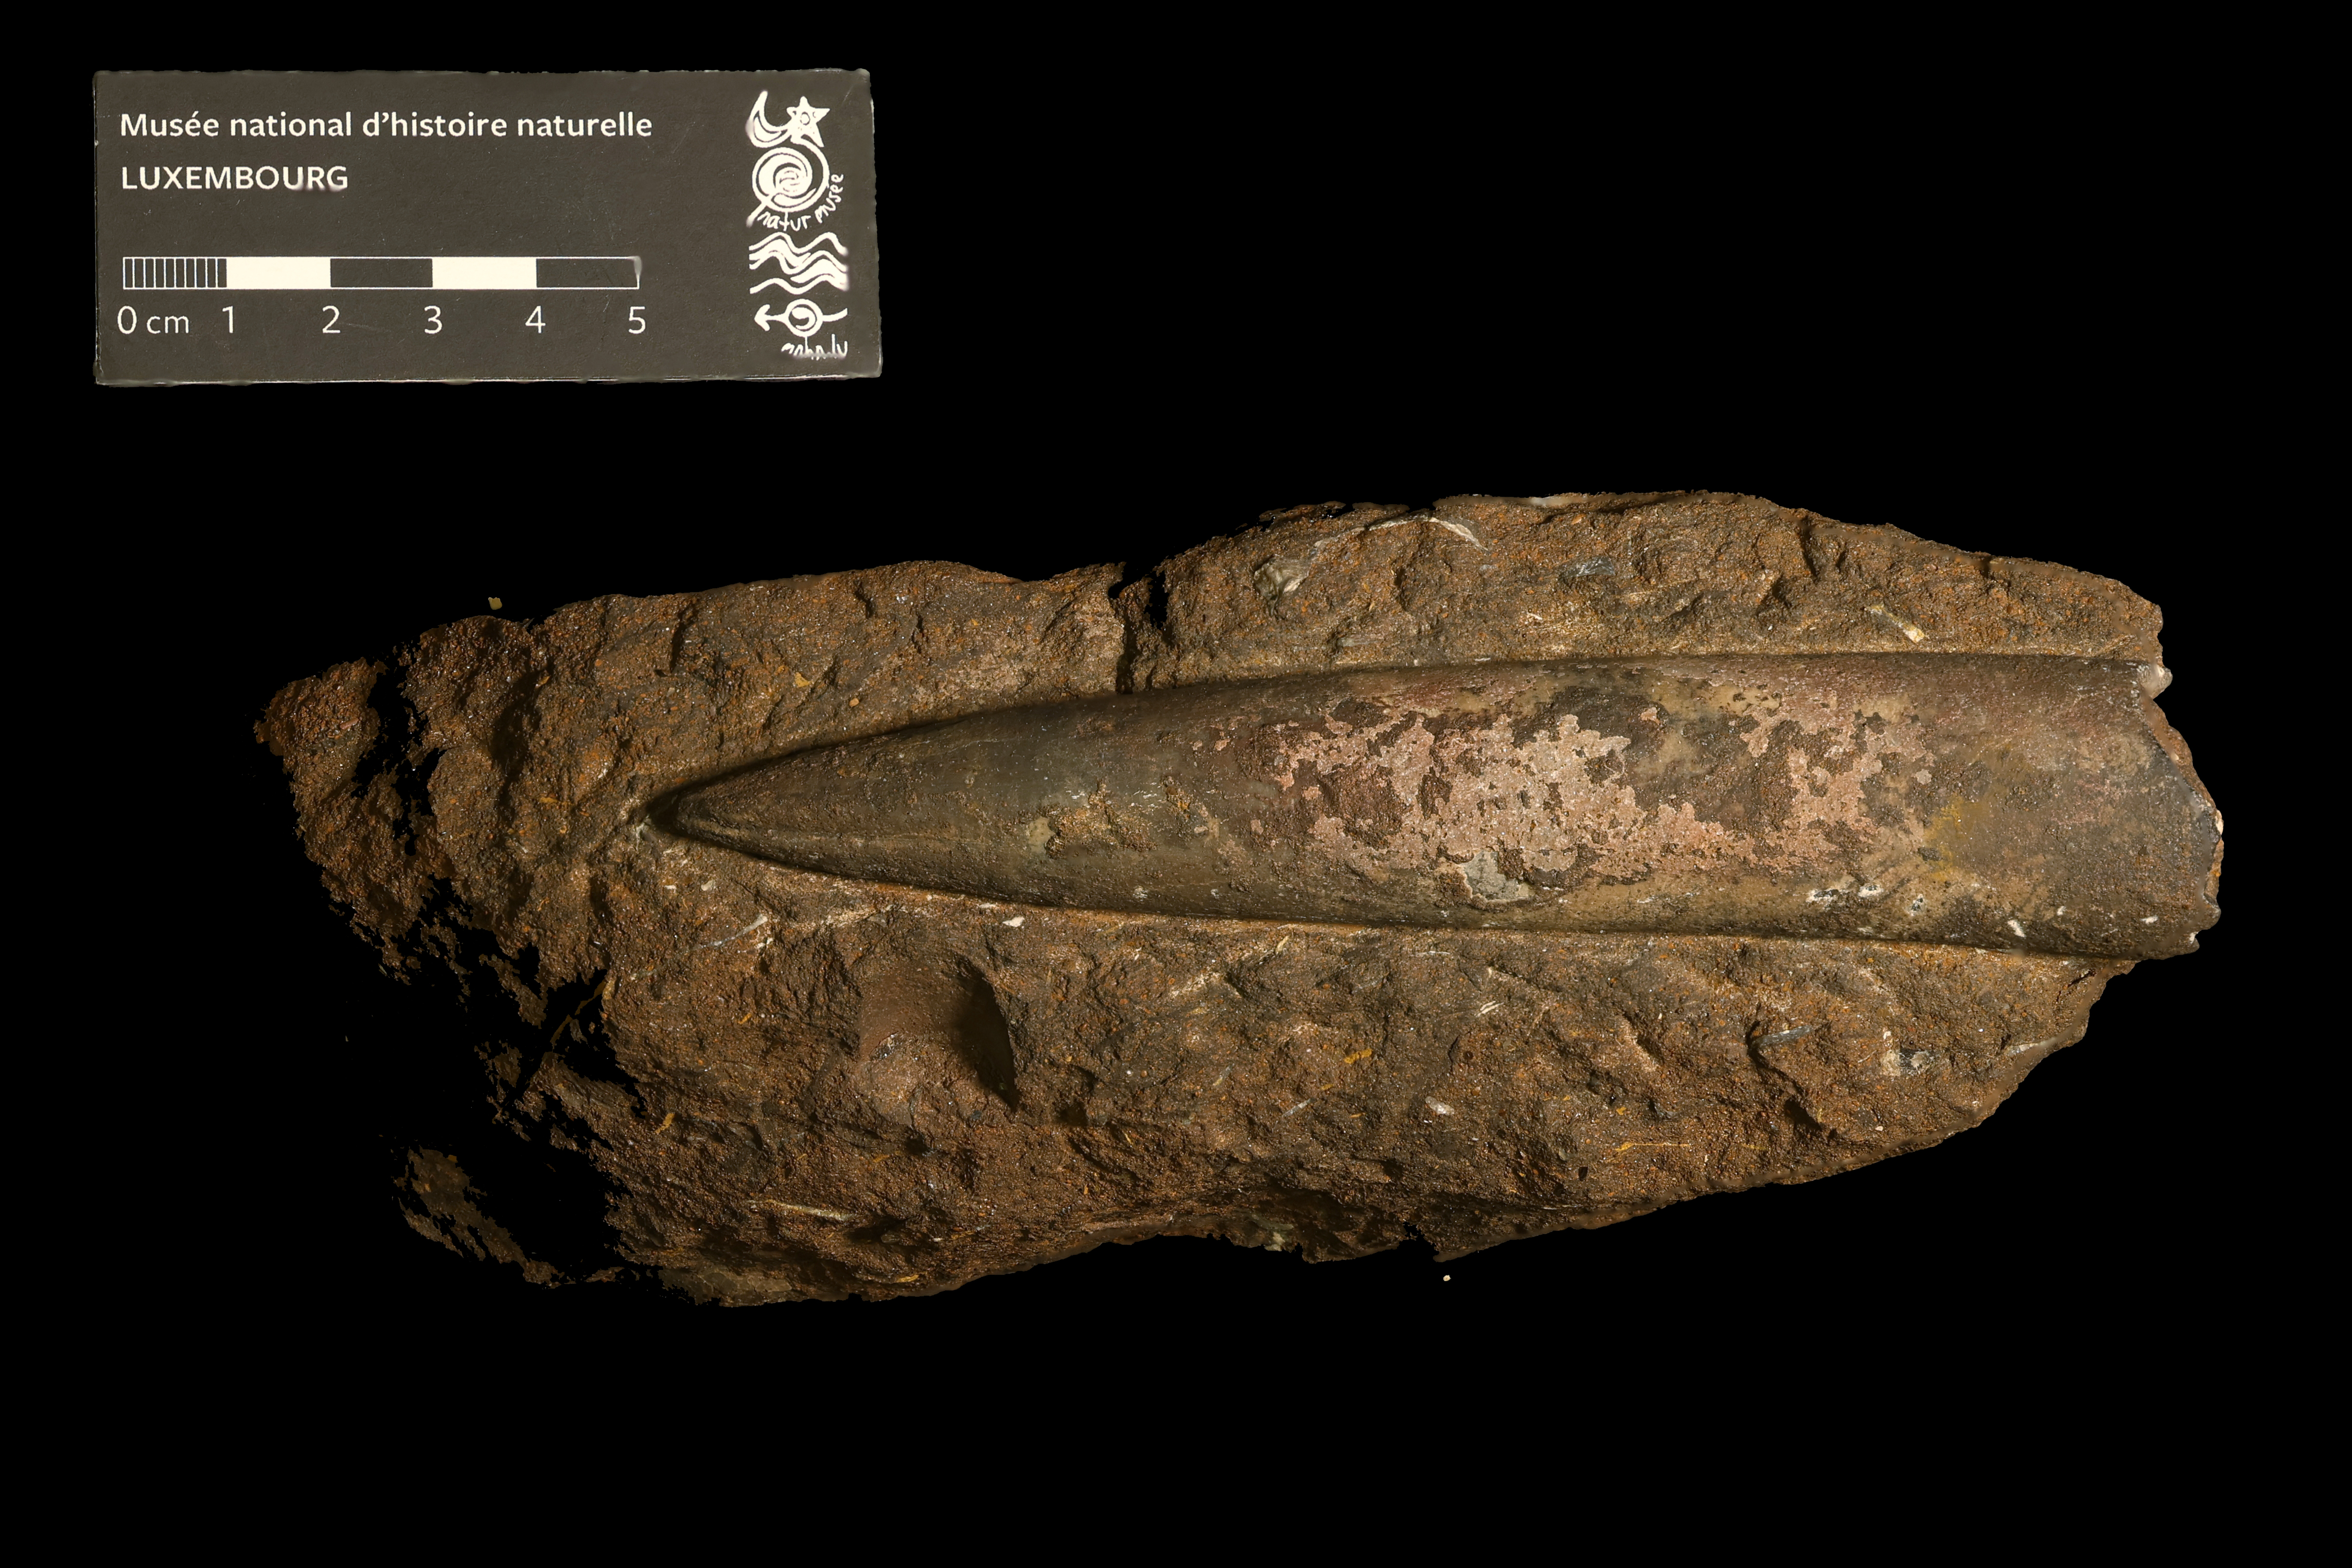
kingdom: Animalia
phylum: Mollusca
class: Cephalopoda
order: Belemnitida
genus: Mesoteuthis
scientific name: Mesoteuthis
